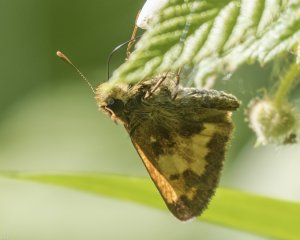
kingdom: Animalia
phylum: Arthropoda
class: Insecta
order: Lepidoptera
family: Hesperiidae
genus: Lon
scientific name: Lon hobomok
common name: Hobomok Skipper
